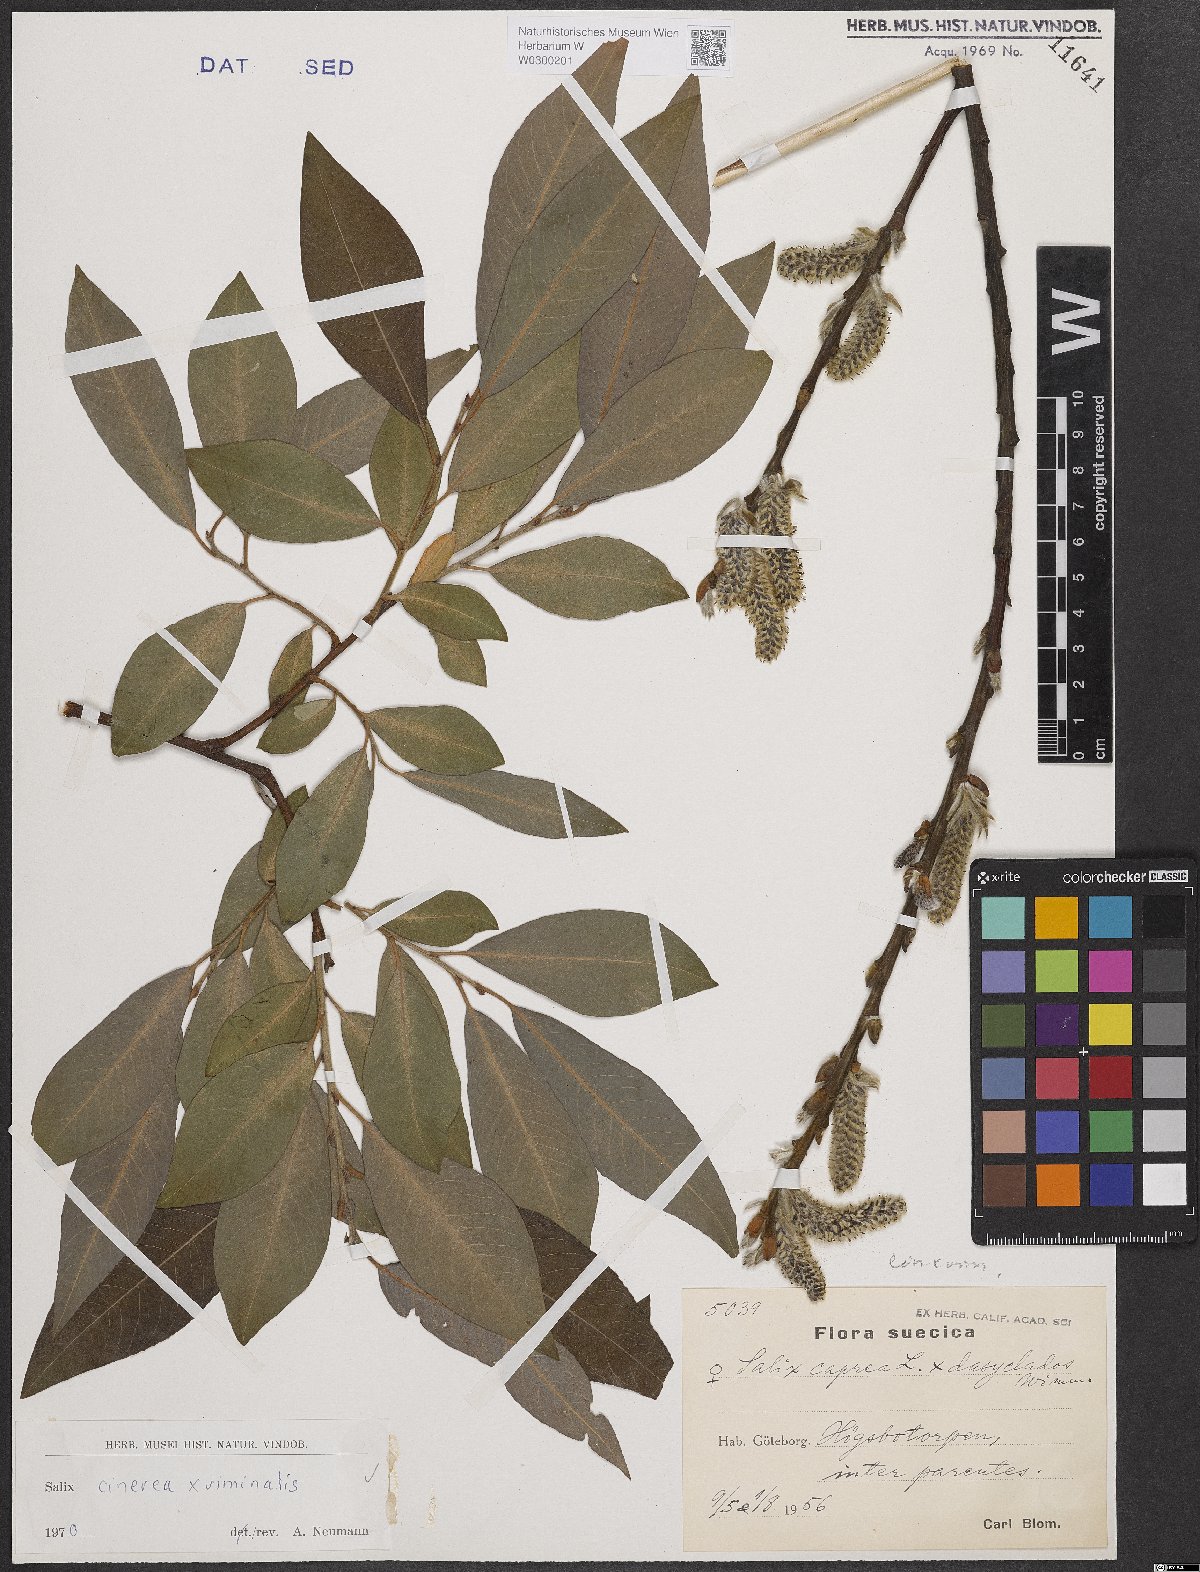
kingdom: Plantae
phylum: Tracheophyta
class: Magnoliopsida
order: Malpighiales
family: Salicaceae
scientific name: Salicaceae
